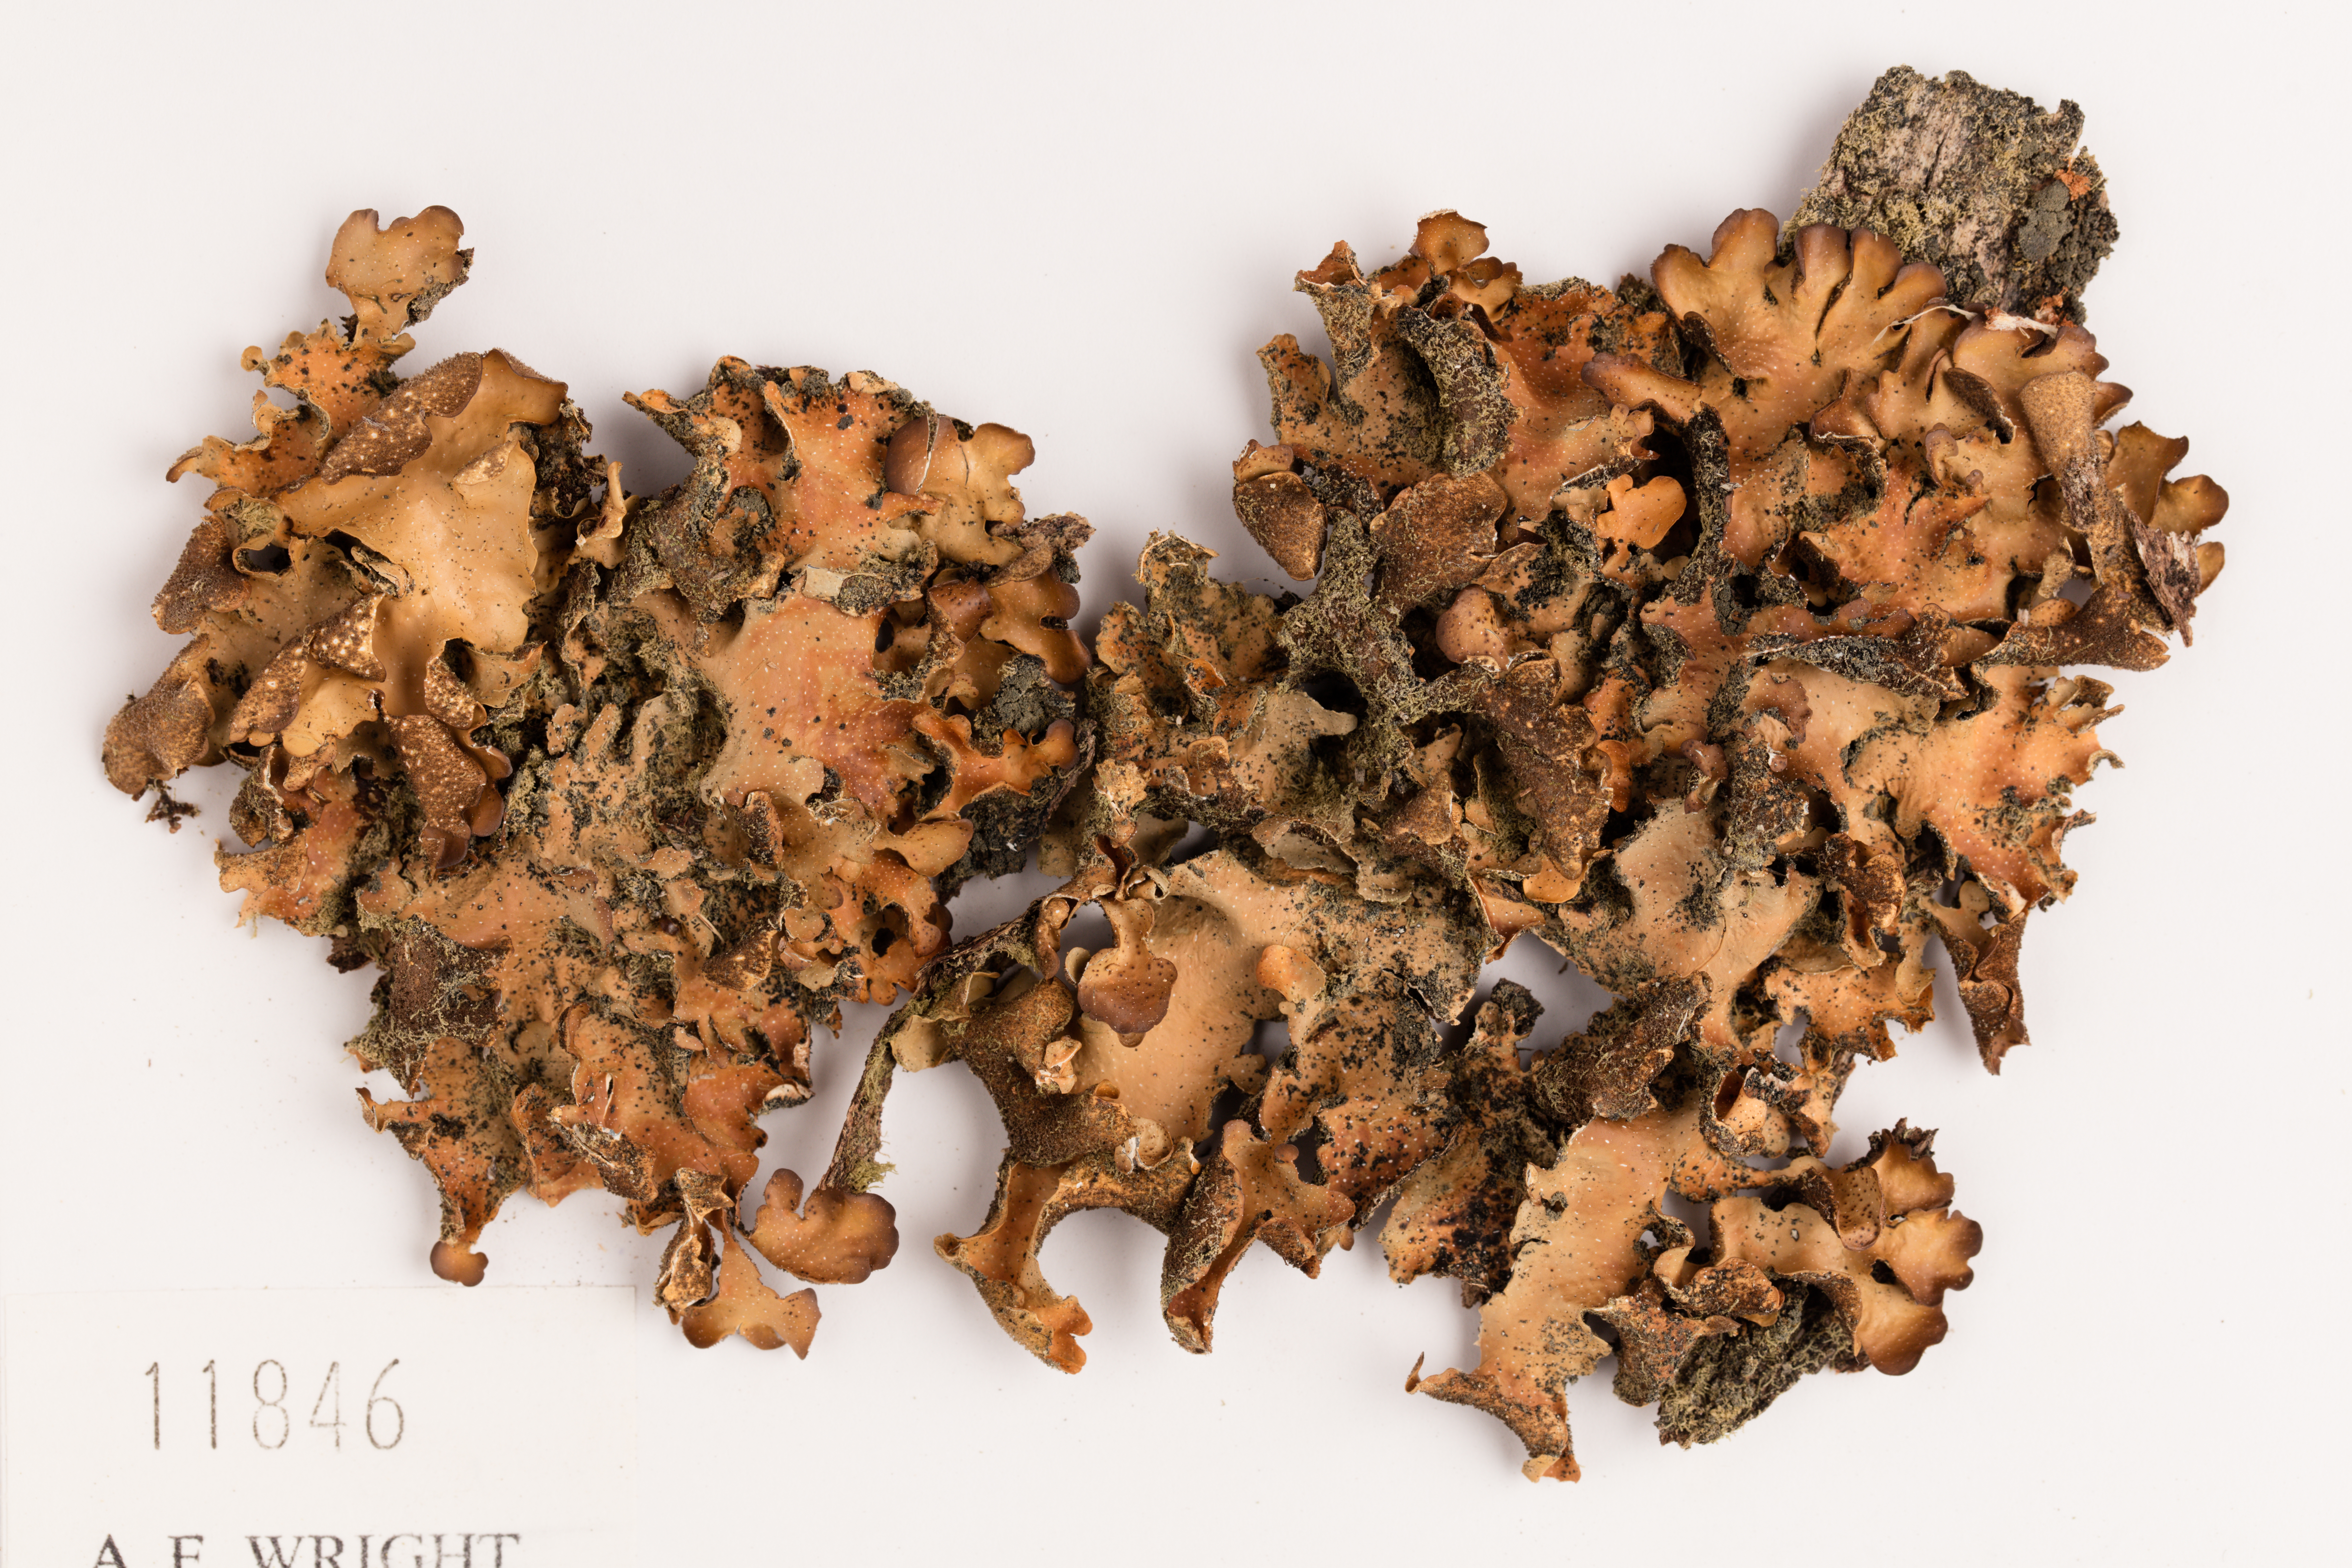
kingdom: Fungi
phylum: Ascomycota
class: Lecanoromycetes
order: Peltigerales
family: Lobariaceae
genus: Pseudocyphellaria
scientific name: Pseudocyphellaria argyracea
